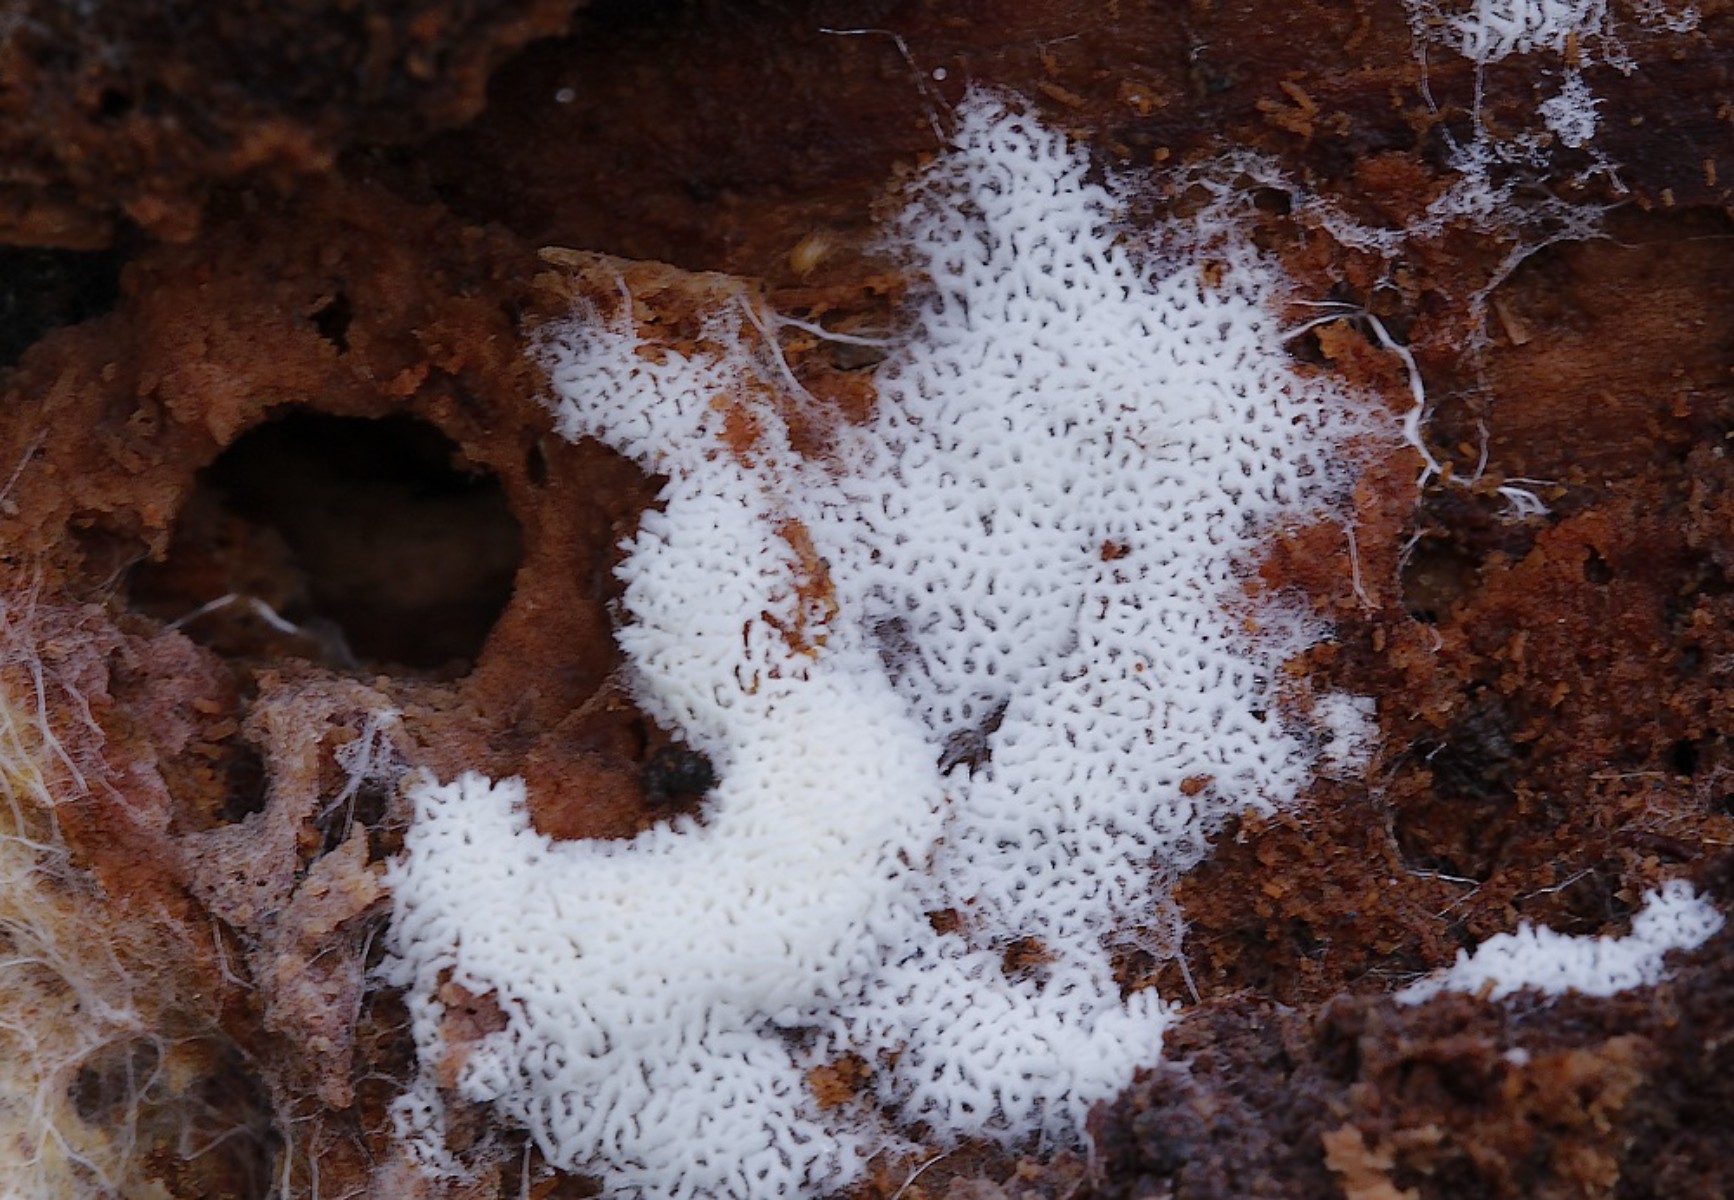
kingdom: Fungi
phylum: Basidiomycota
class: Agaricomycetes
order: Trechisporales
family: Sistotremataceae
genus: Trechispora
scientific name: Trechispora
